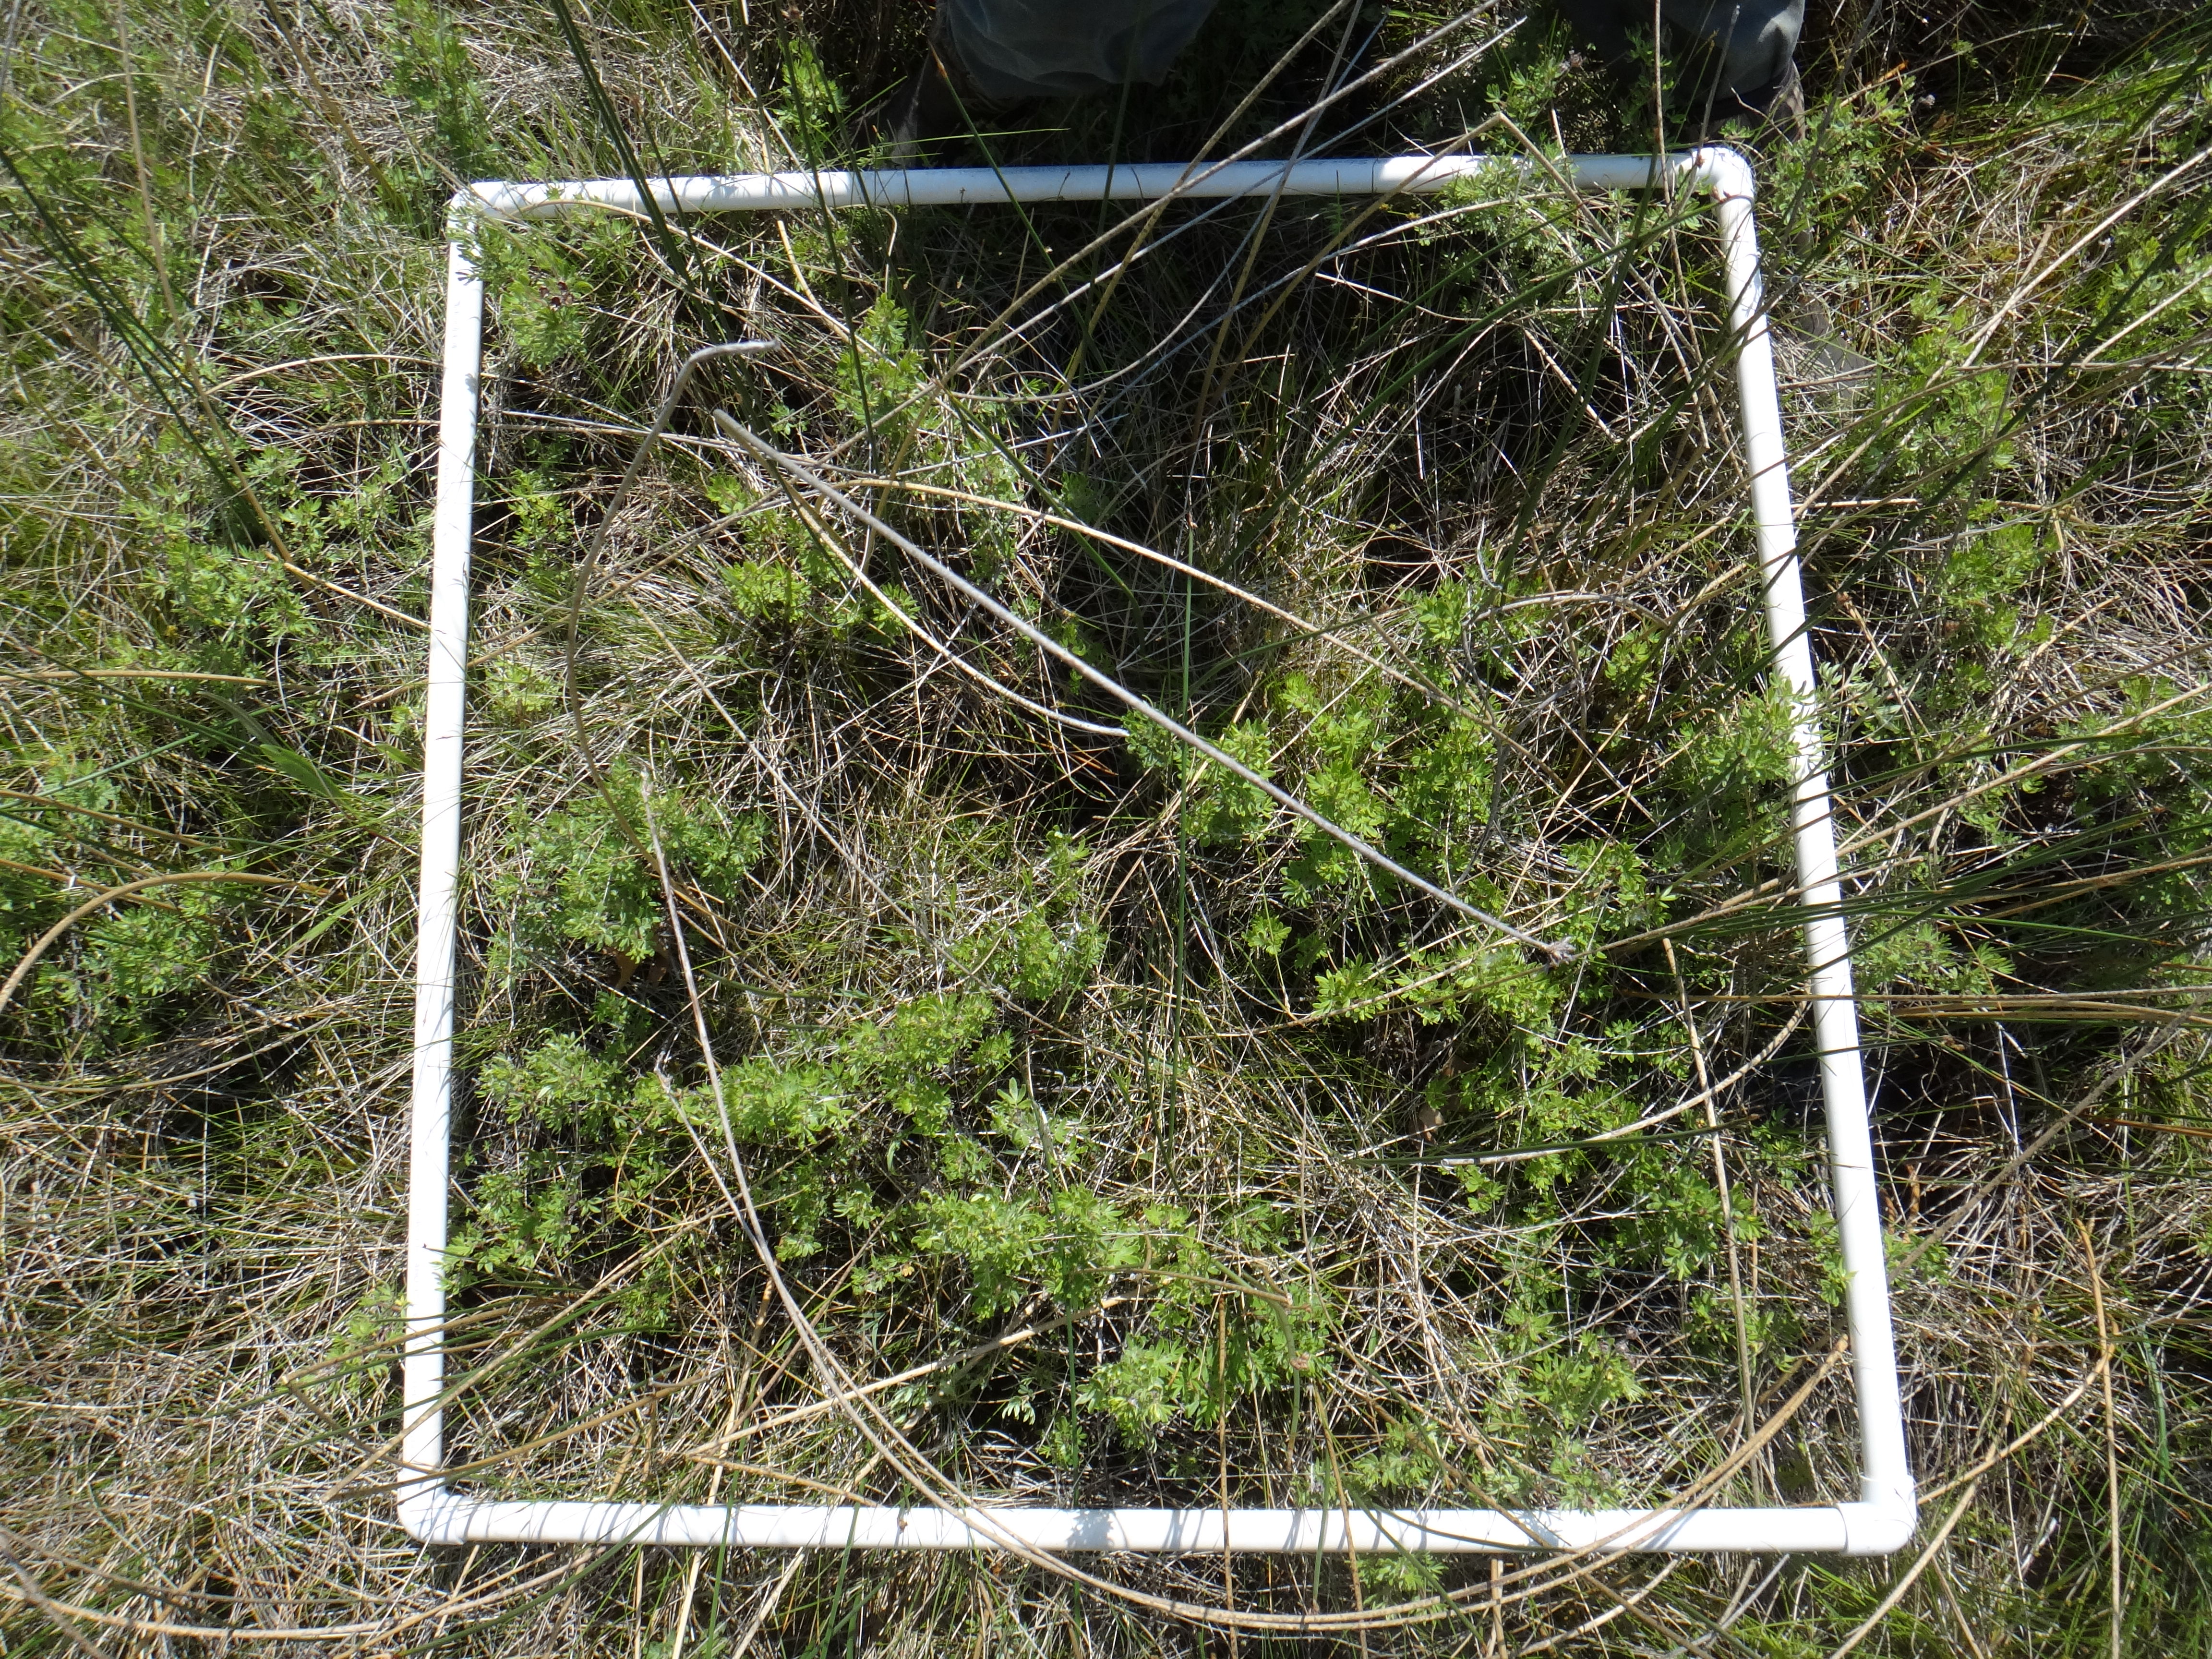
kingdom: Plantae
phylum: Tracheophyta
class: Magnoliopsida
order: Rosales
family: Rosaceae
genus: Dasiphora
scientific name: Dasiphora fruticosa
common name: Shrubby cinquefoil
